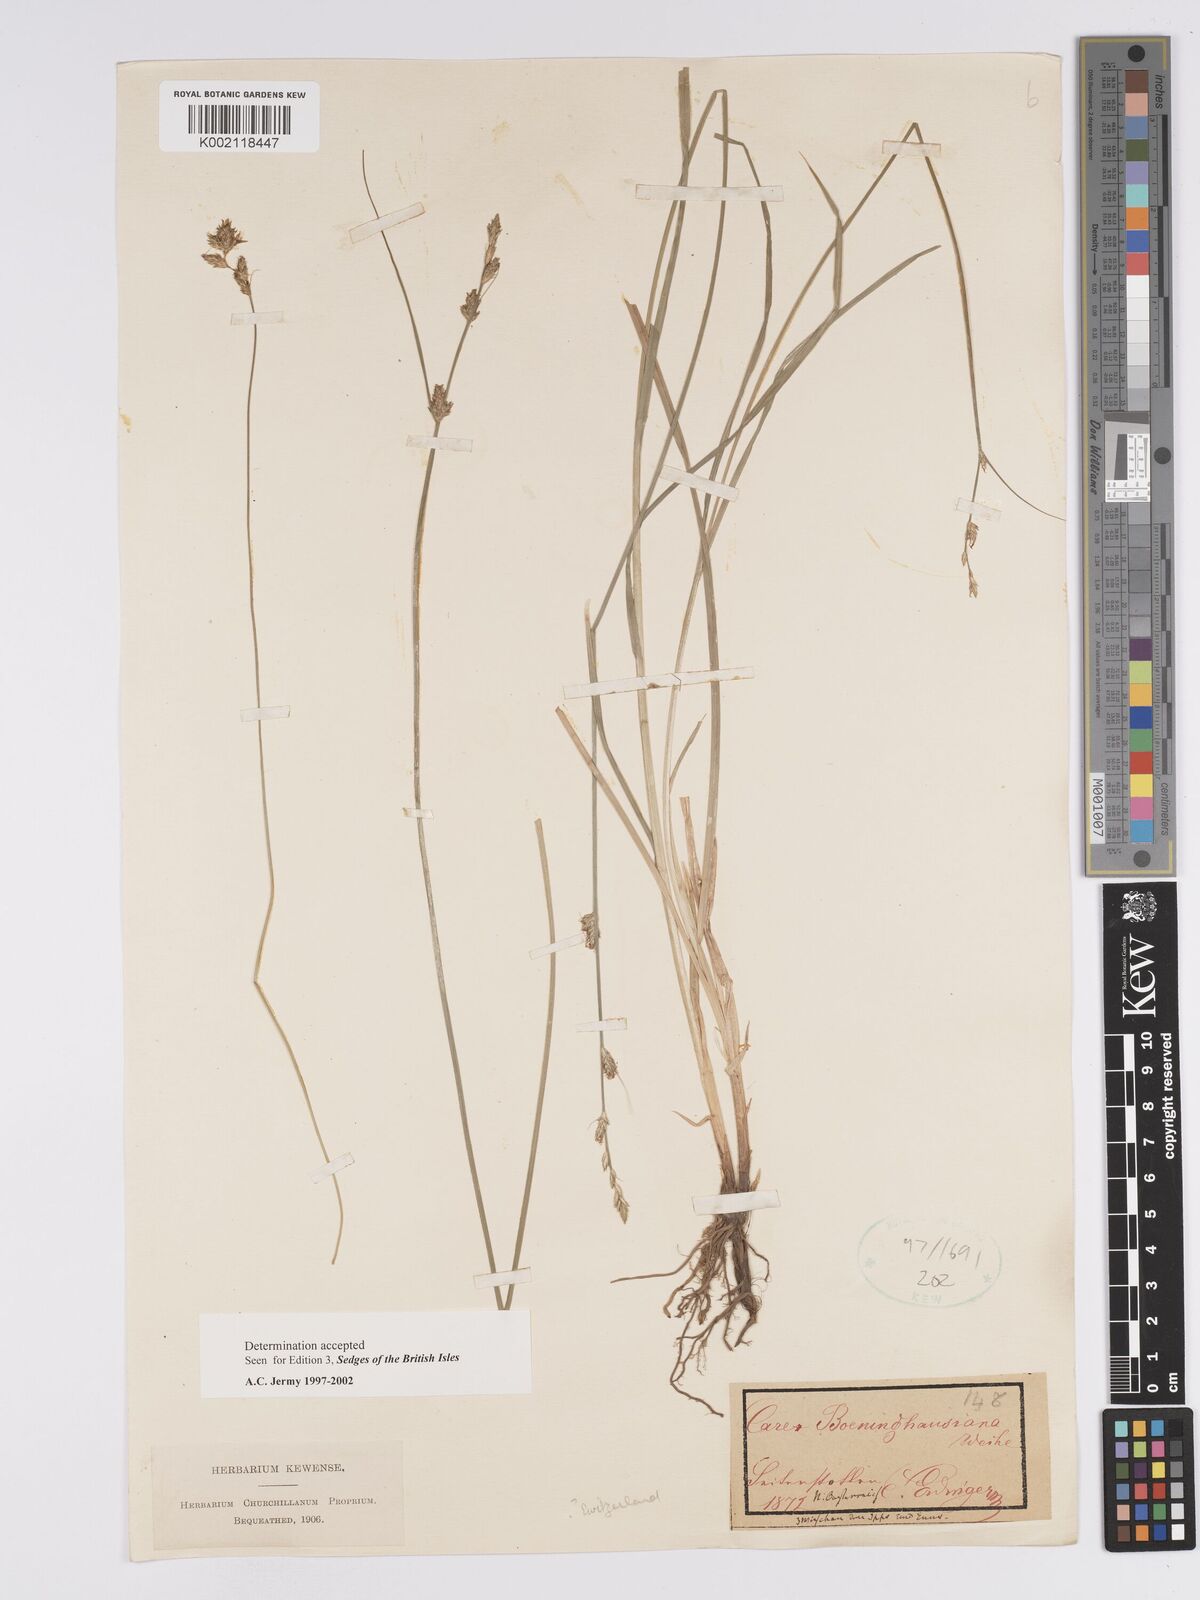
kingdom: Plantae
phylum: Tracheophyta
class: Liliopsida
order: Poales
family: Cyperaceae
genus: Carex
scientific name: Carex boenninghausiana
